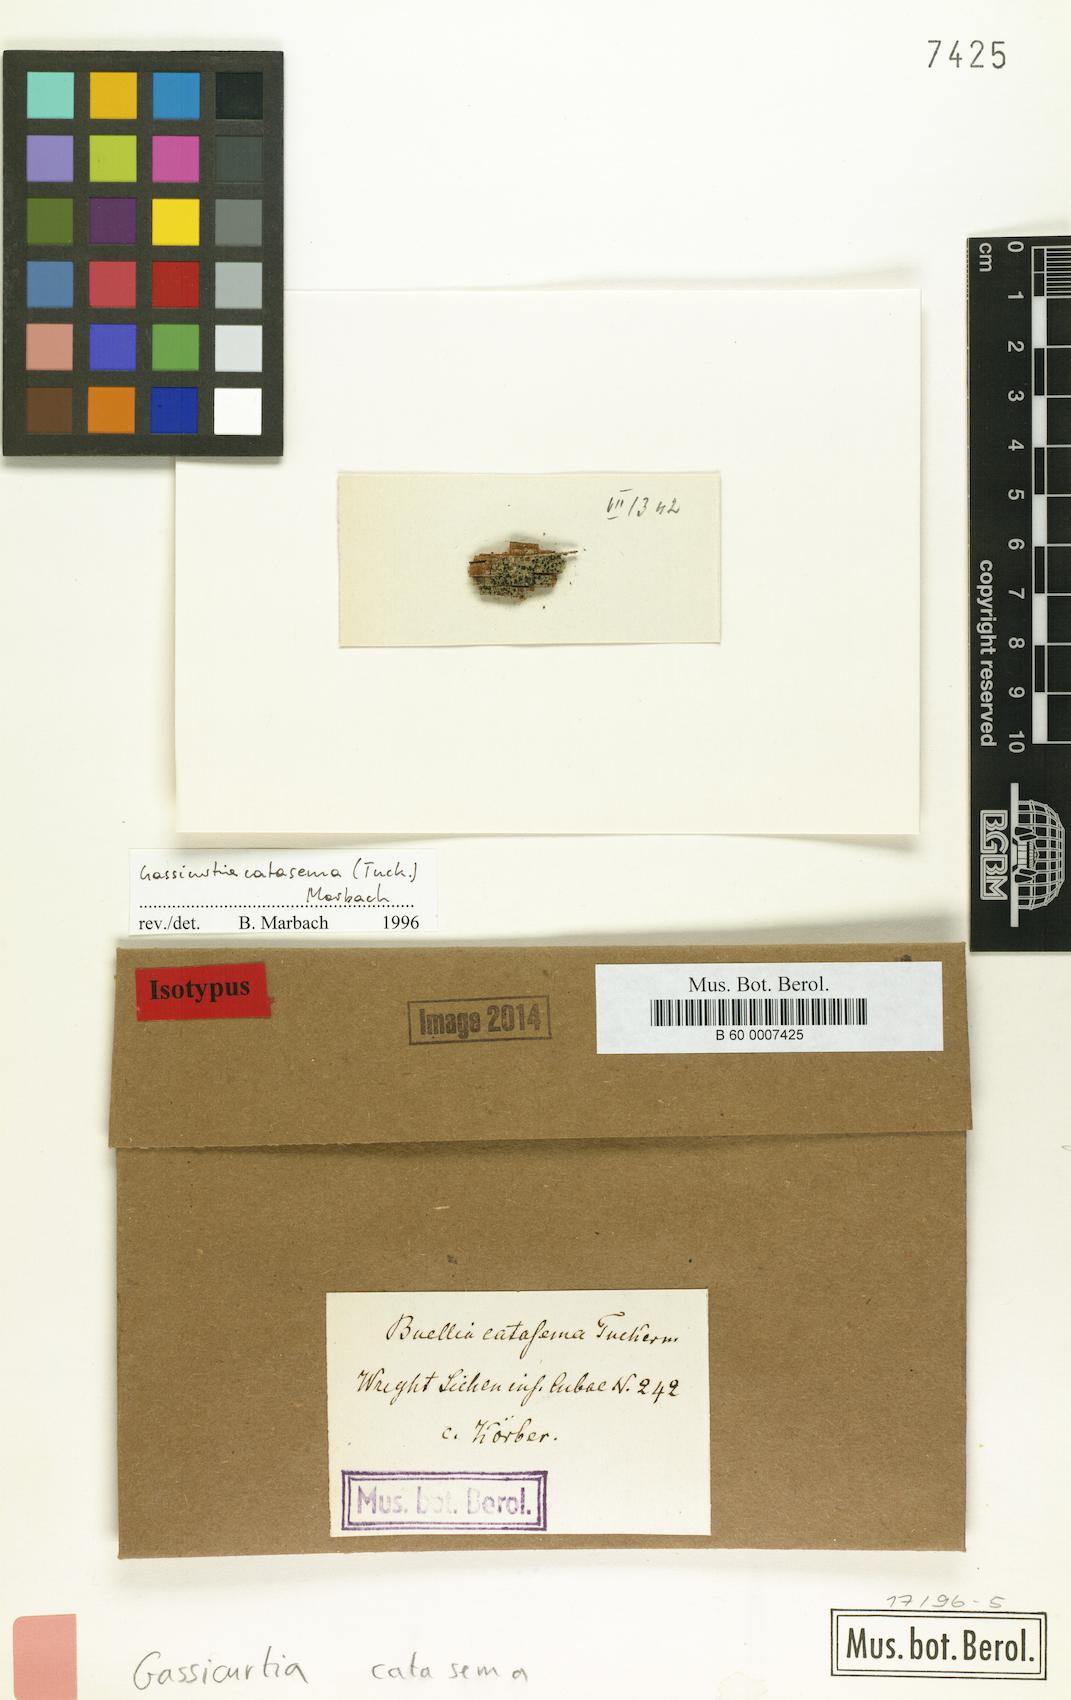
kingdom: Fungi
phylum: Ascomycota
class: Lecanoromycetes
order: Caliciales
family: Caliciaceae
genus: Gassicurtia
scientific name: Gassicurtia catasema
